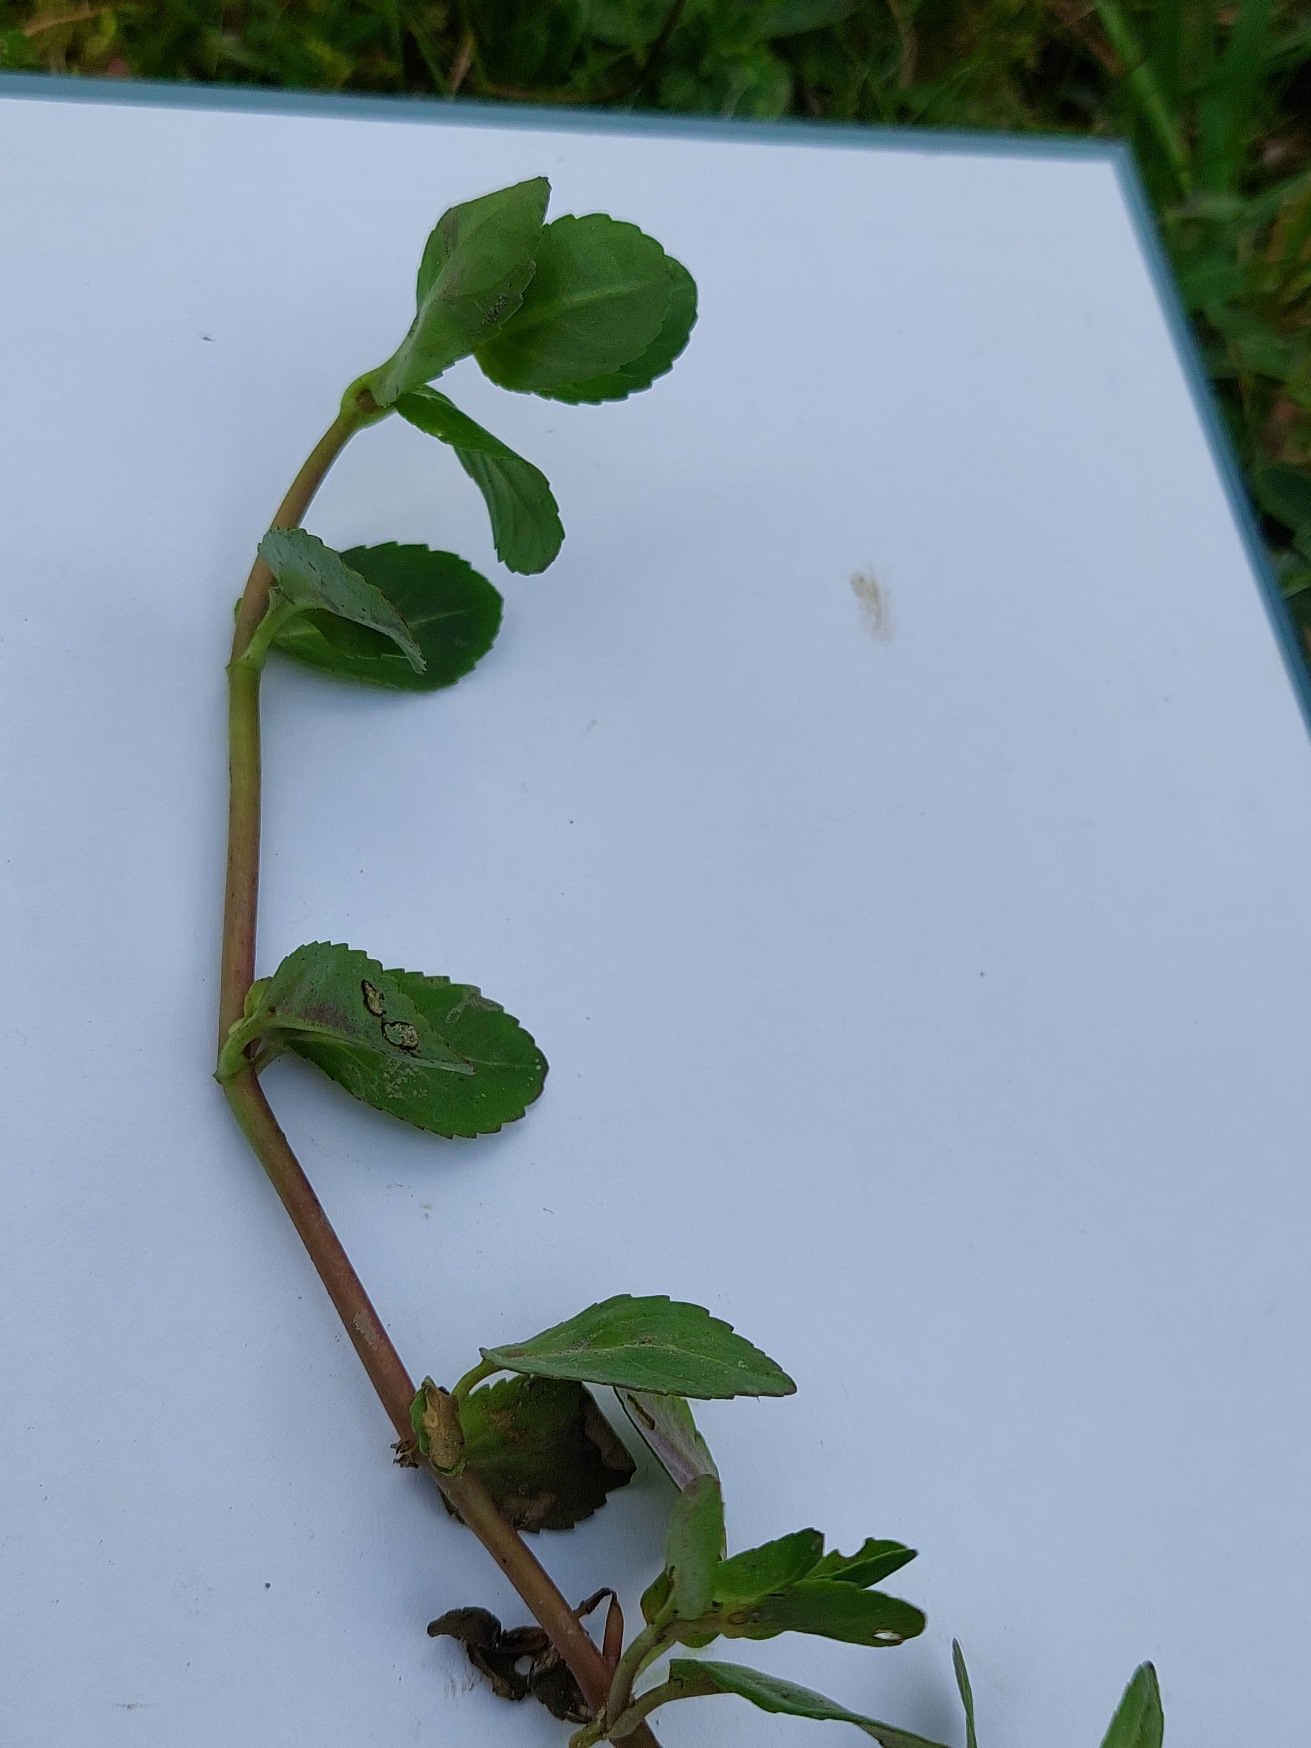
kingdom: Plantae
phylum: Tracheophyta
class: Magnoliopsida
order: Lamiales
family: Plantaginaceae
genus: Veronica
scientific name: Veronica beccabunga
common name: Tykbladet ærenpris
